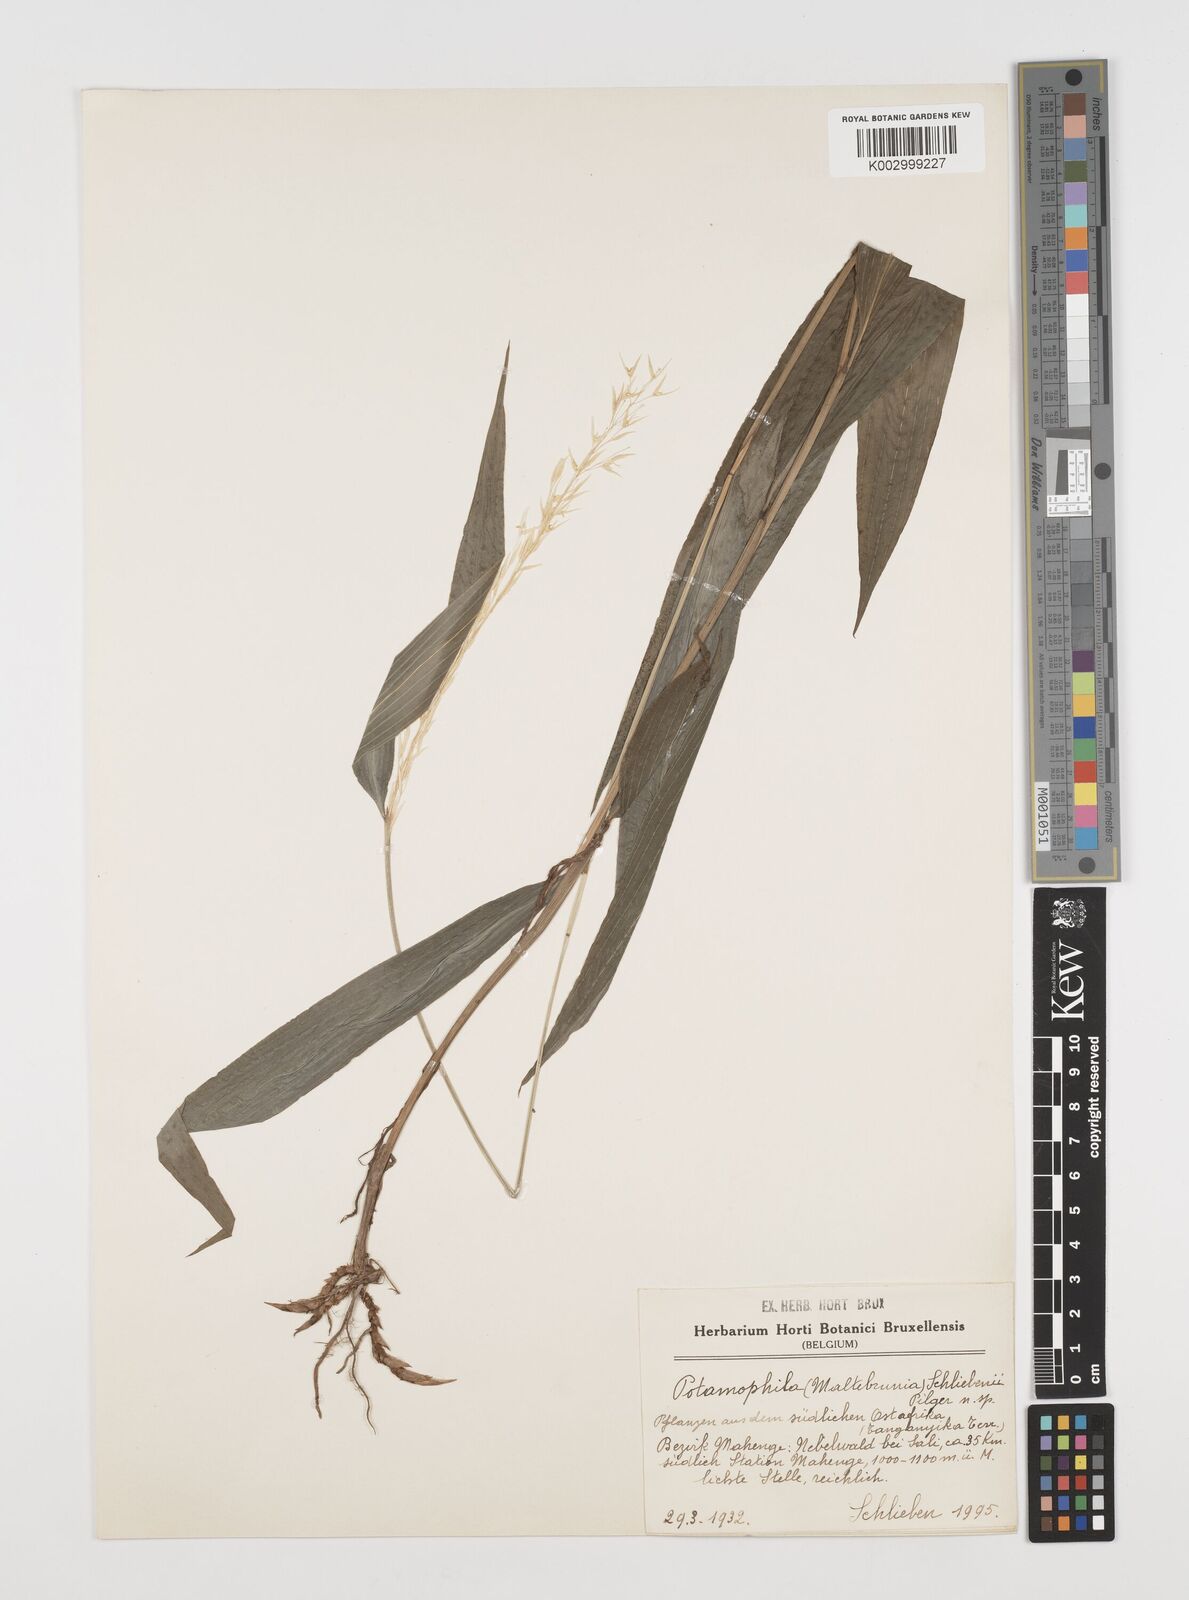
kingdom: Plantae
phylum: Tracheophyta
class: Liliopsida
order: Poales
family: Poaceae
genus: Maltebrunia
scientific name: Maltebrunia schliebenii
